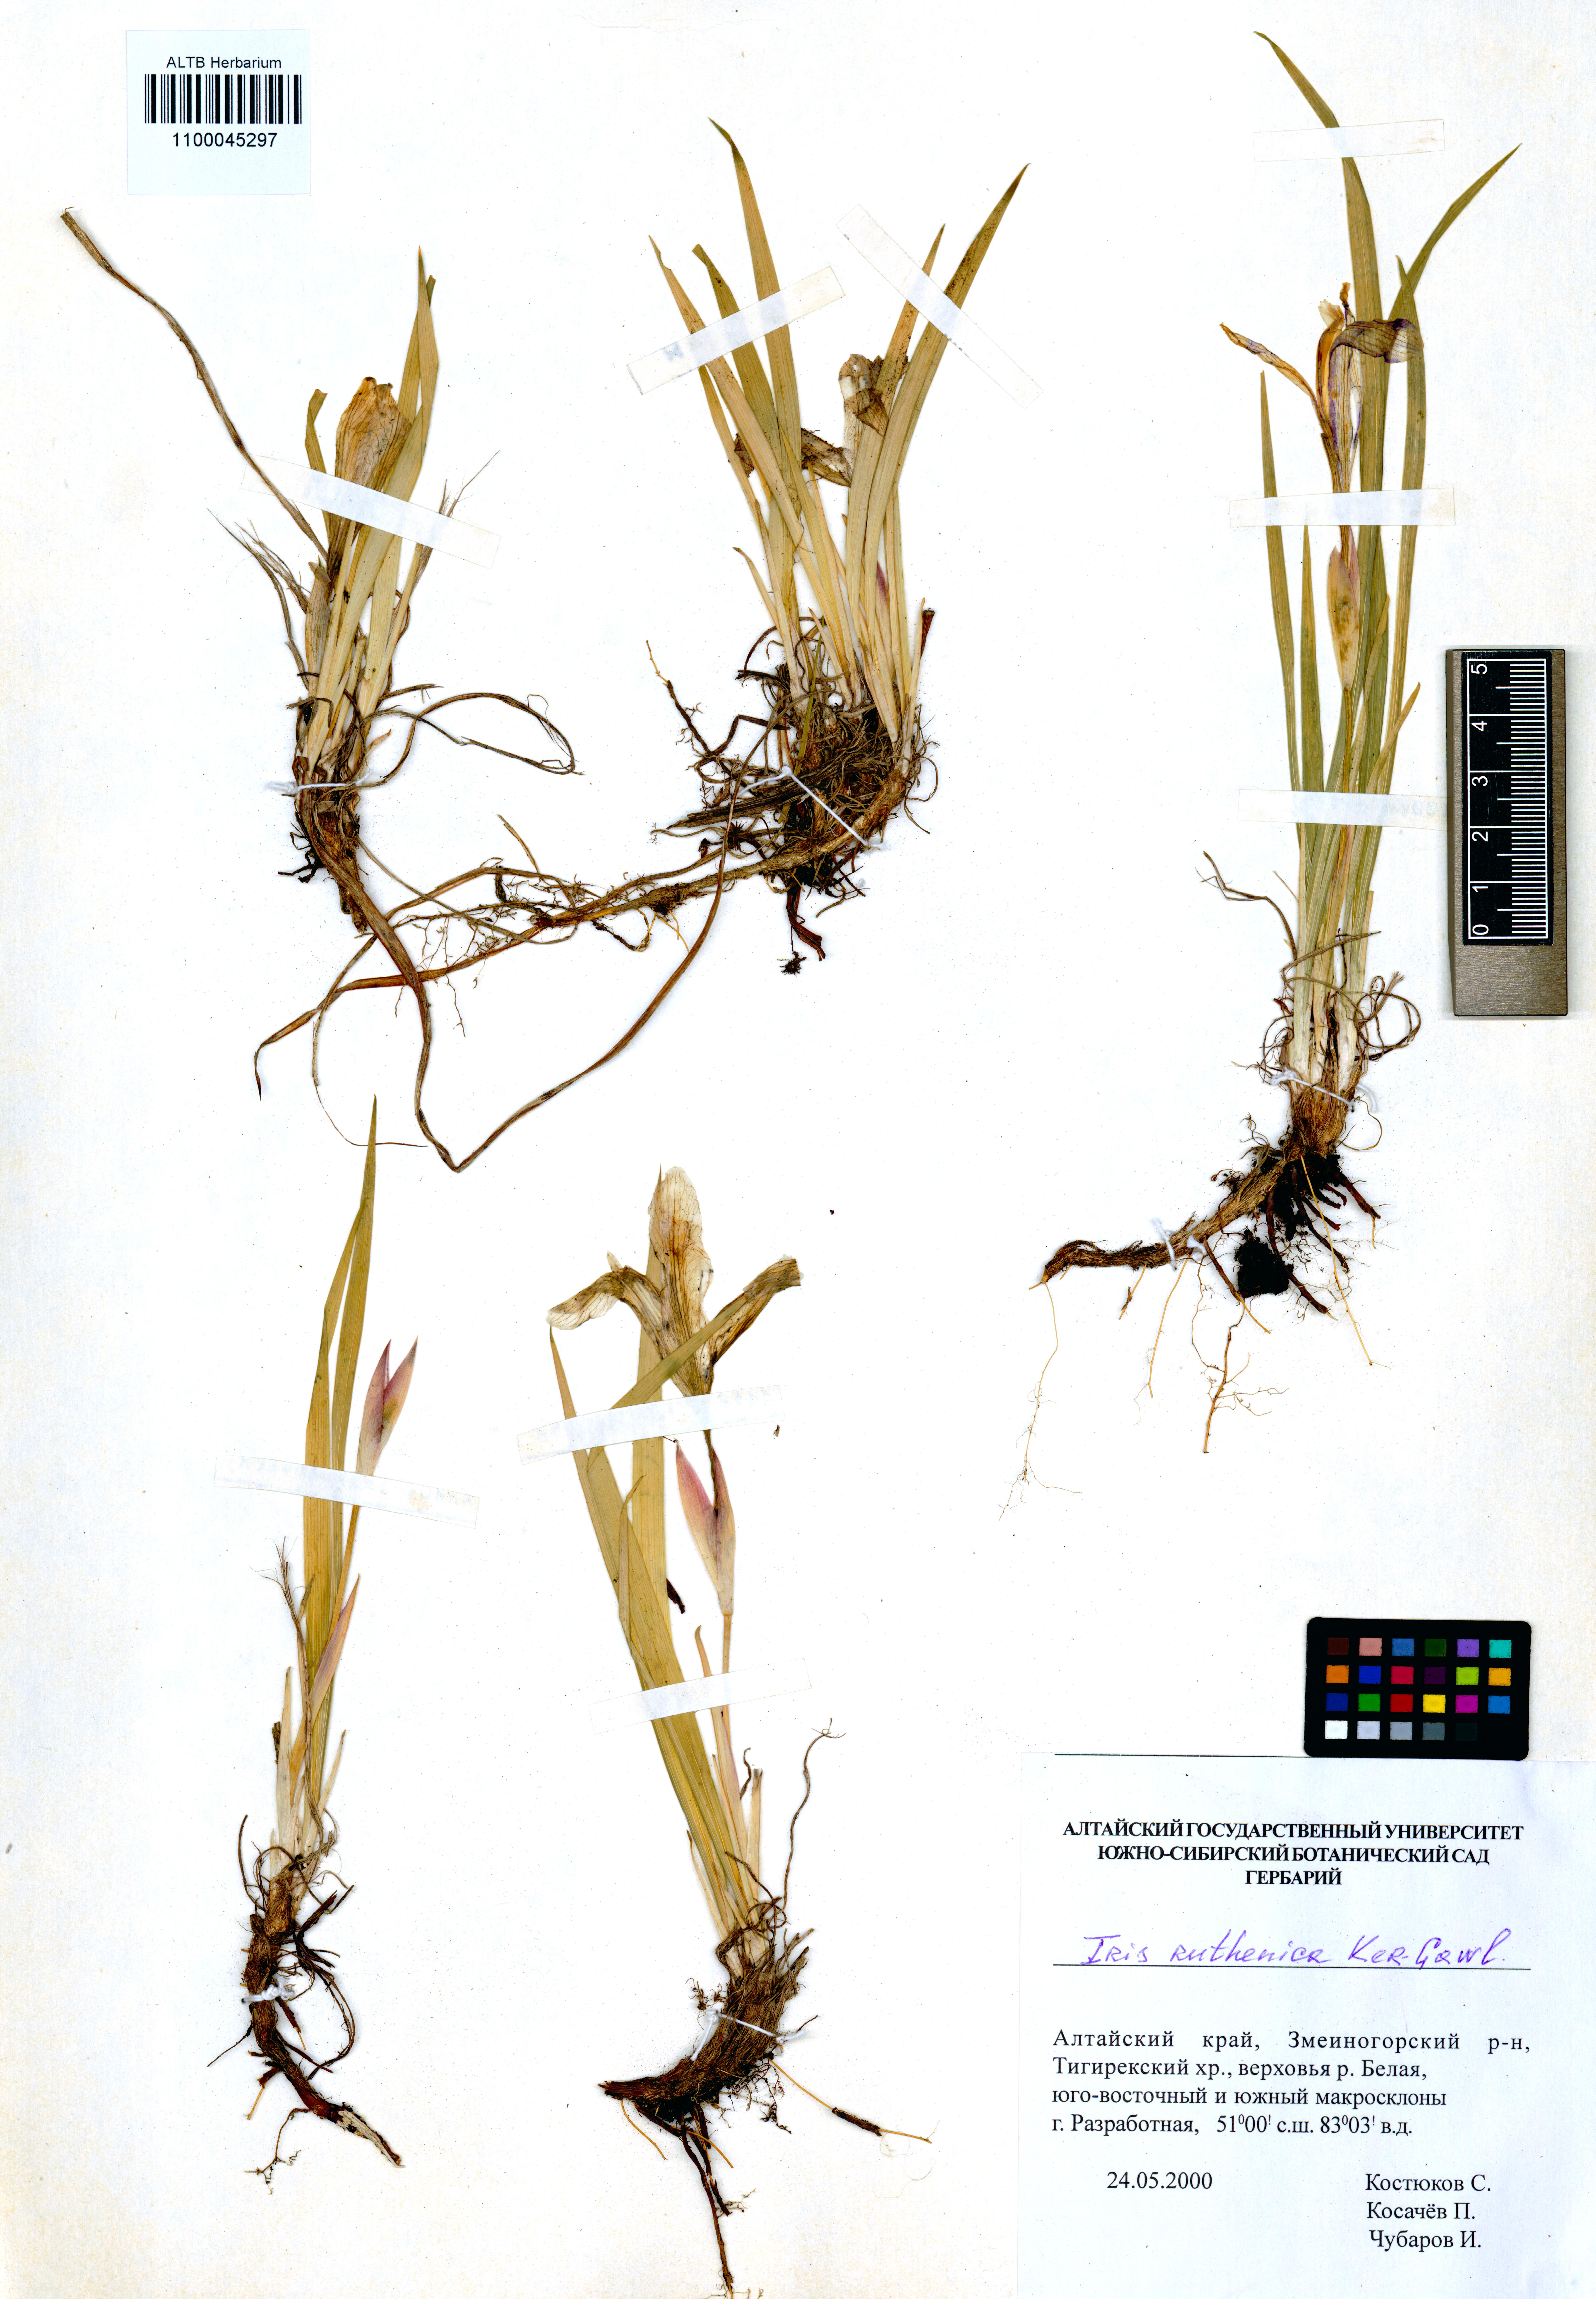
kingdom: Plantae
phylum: Tracheophyta
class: Liliopsida
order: Asparagales
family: Iridaceae
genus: Iris
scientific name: Iris ruthenica
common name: Purple-bract iris
